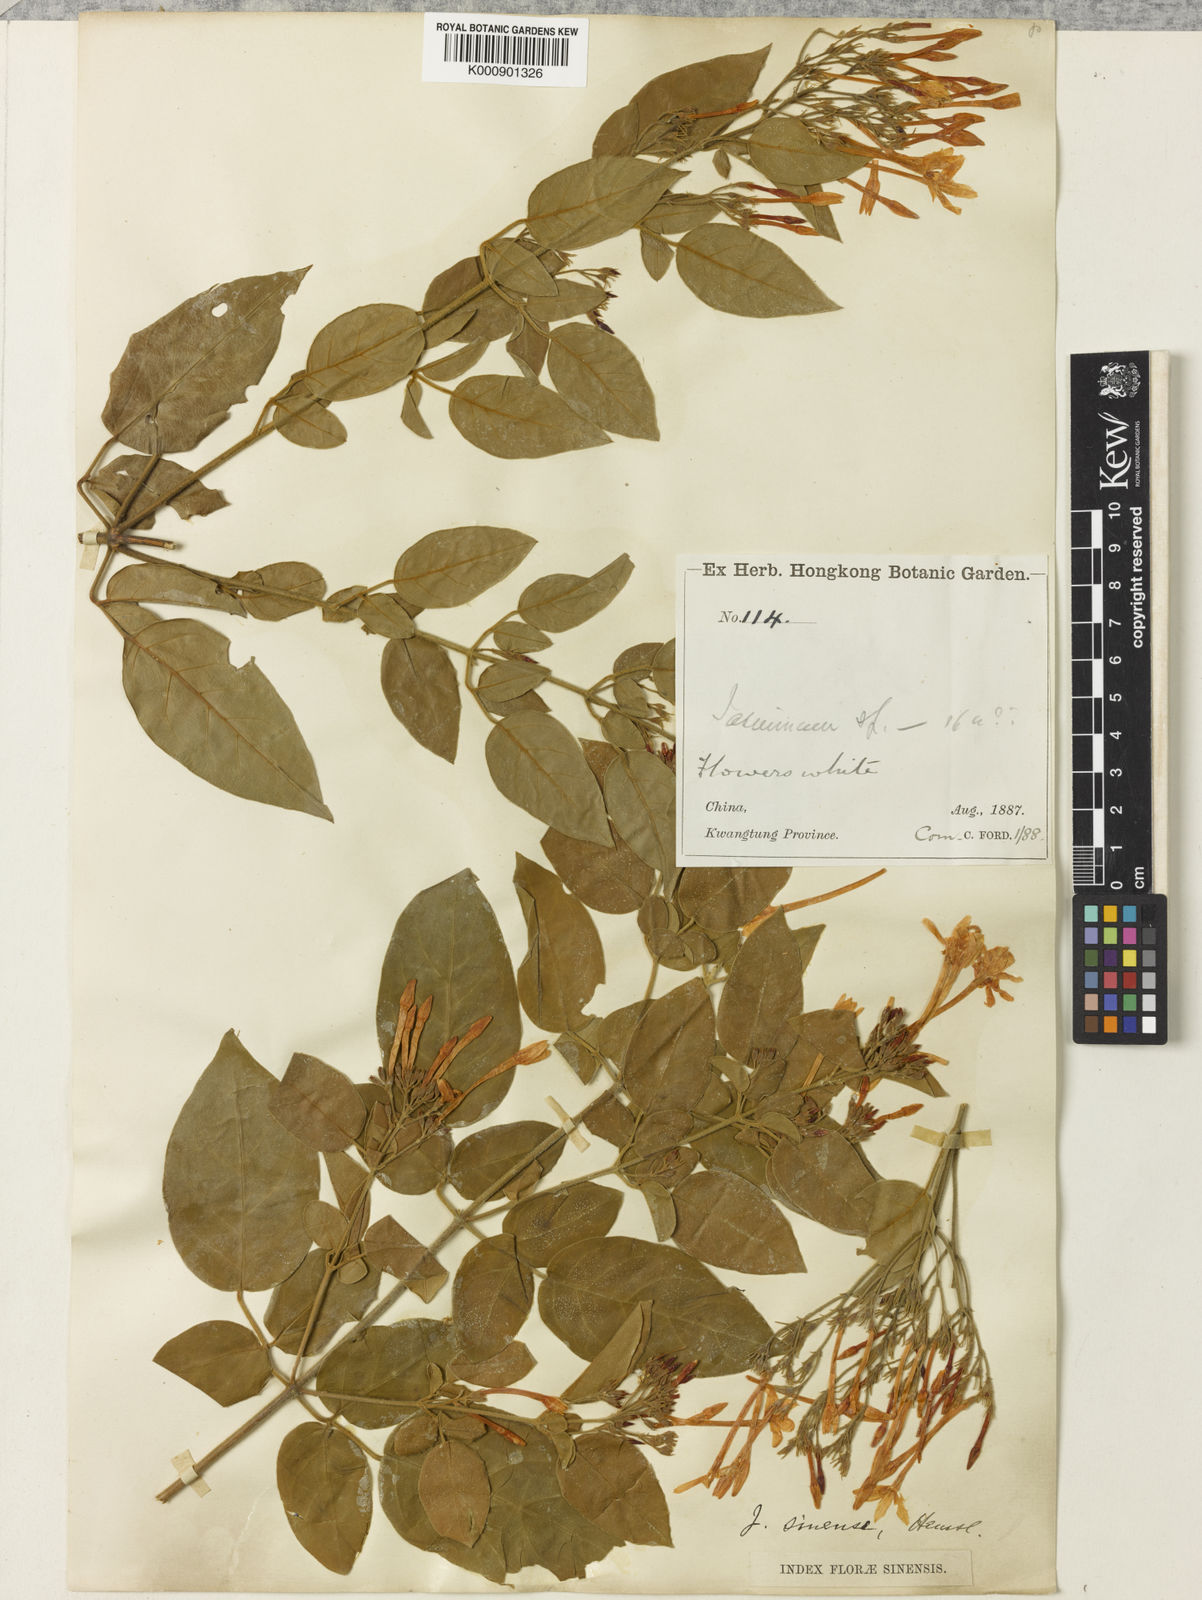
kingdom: Plantae
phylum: Tracheophyta
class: Magnoliopsida
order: Lamiales
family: Oleaceae
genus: Jasminum
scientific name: Jasminum sinense
